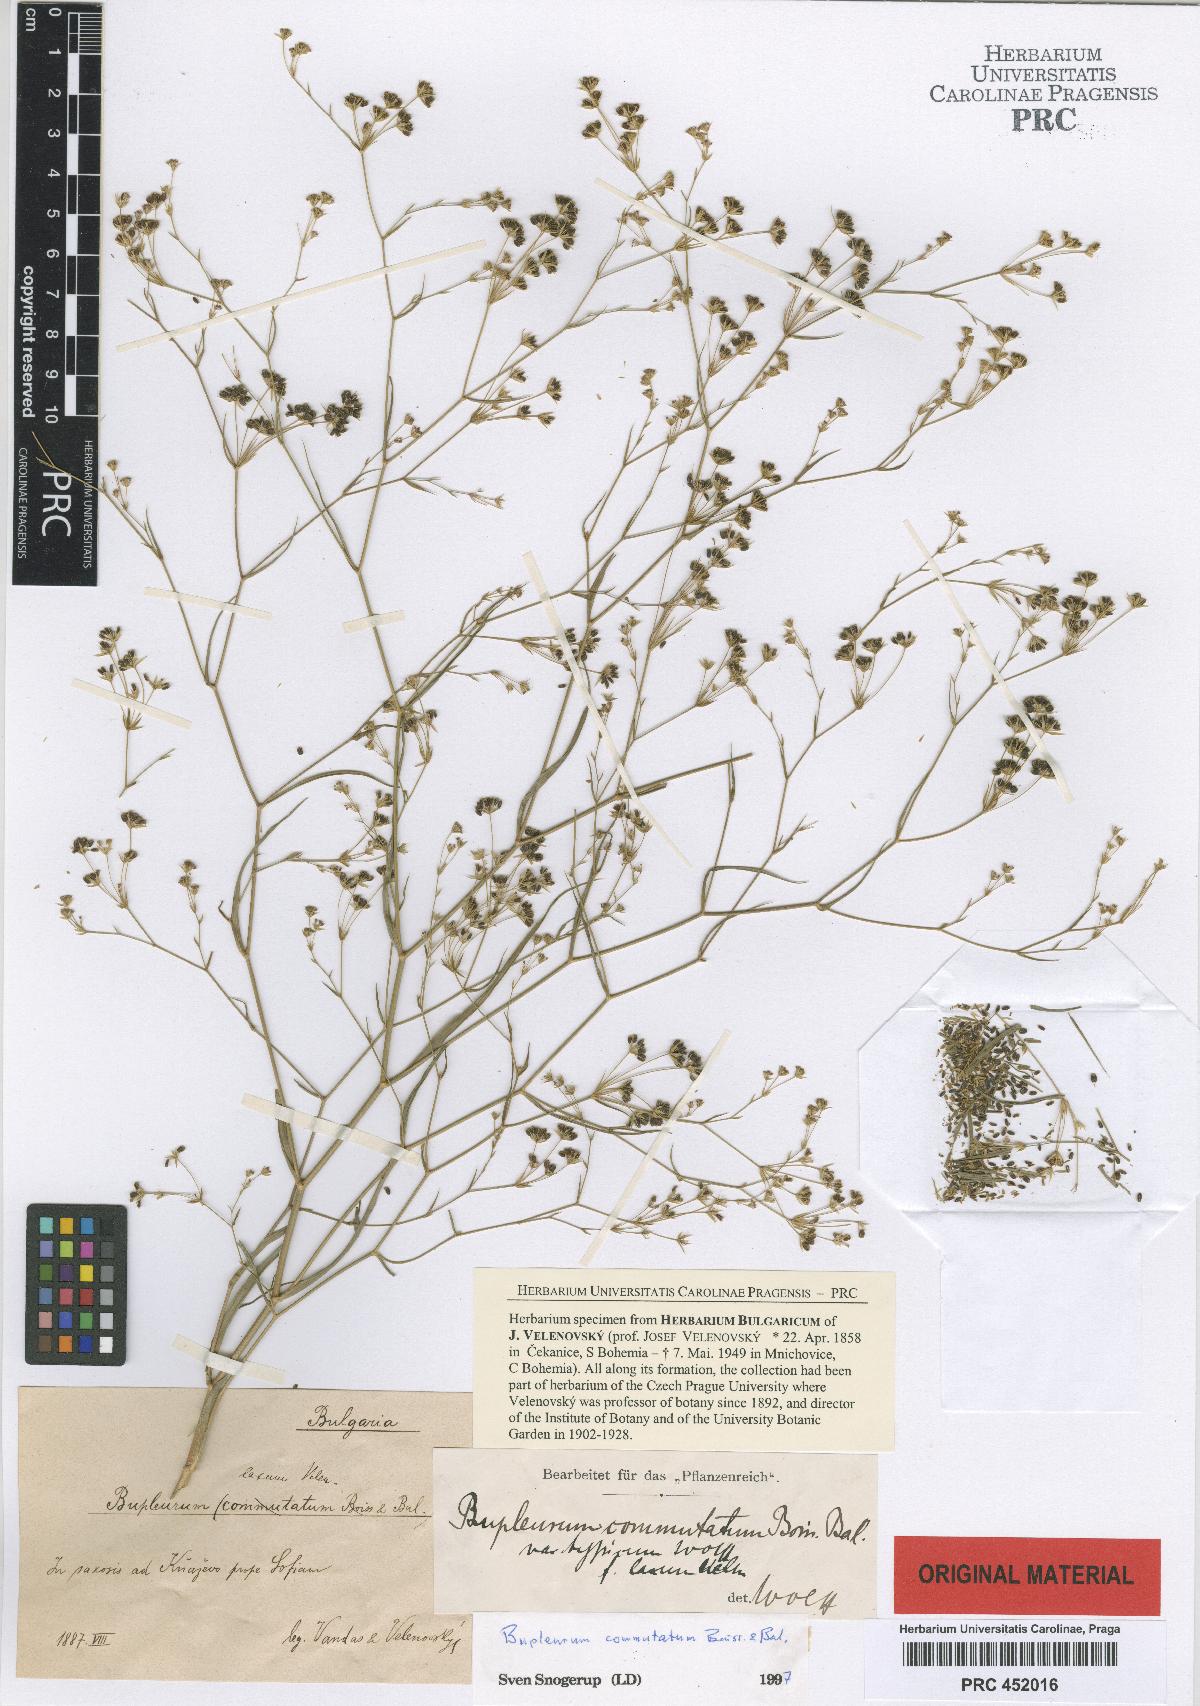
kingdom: Plantae
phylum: Tracheophyta
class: Magnoliopsida
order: Apiales
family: Apiaceae
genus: Bupleurum
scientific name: Bupleurum commutatum
